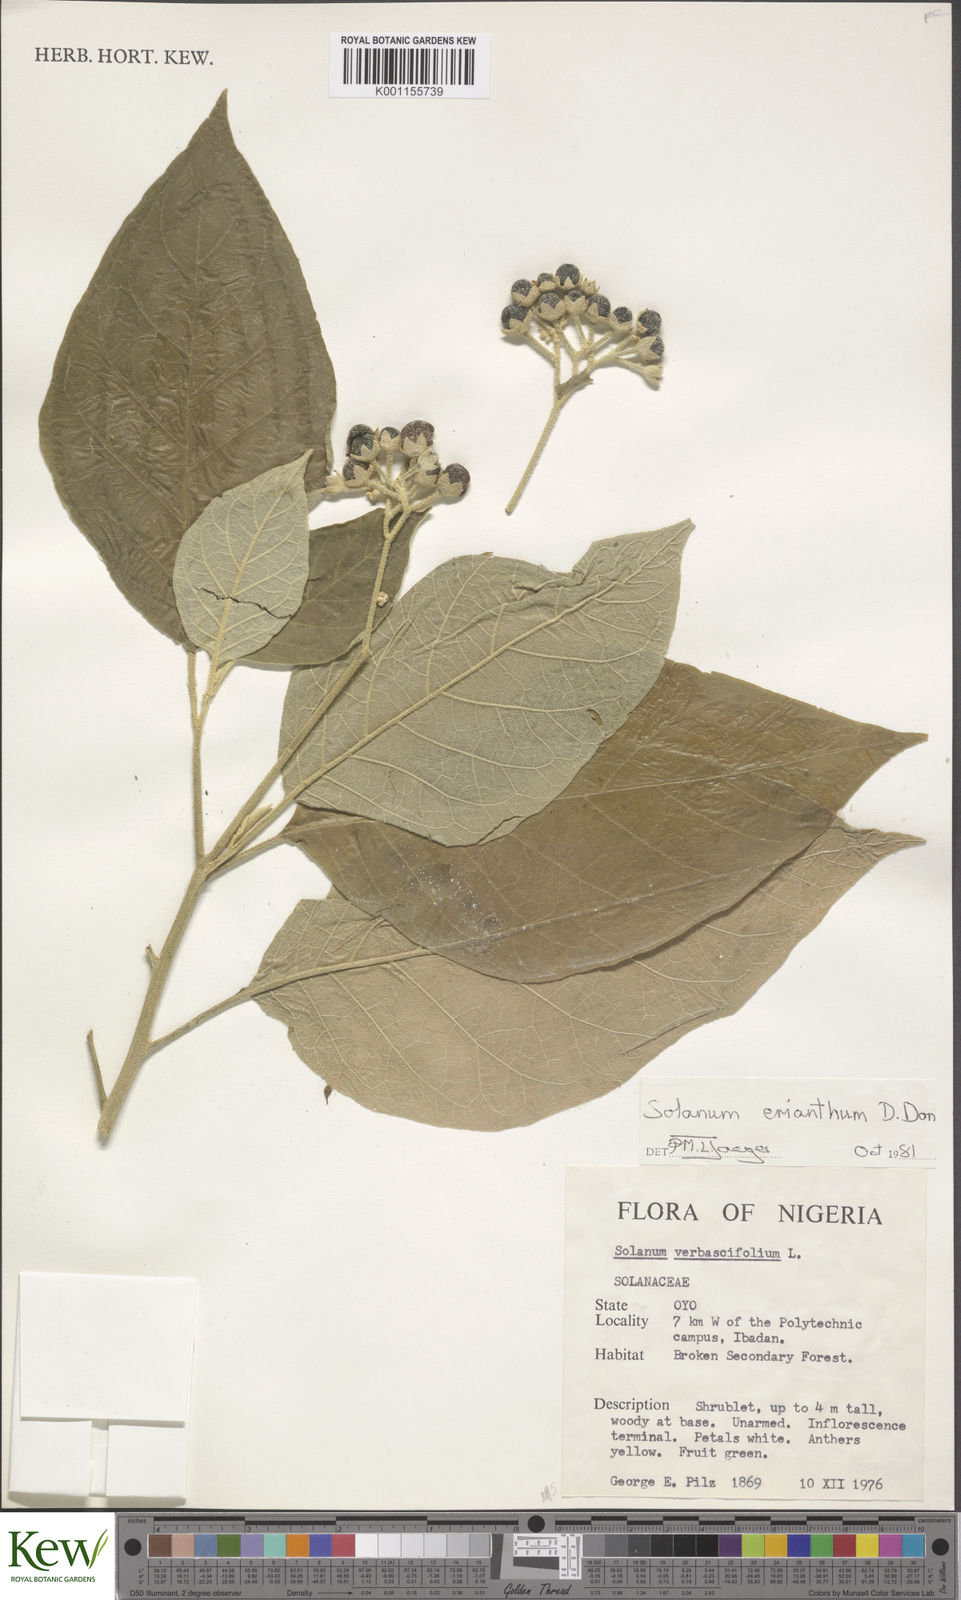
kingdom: Plantae
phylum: Tracheophyta
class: Magnoliopsida
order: Solanales
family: Solanaceae
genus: Solanum
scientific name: Solanum erianthum
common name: Tobacco-tree
